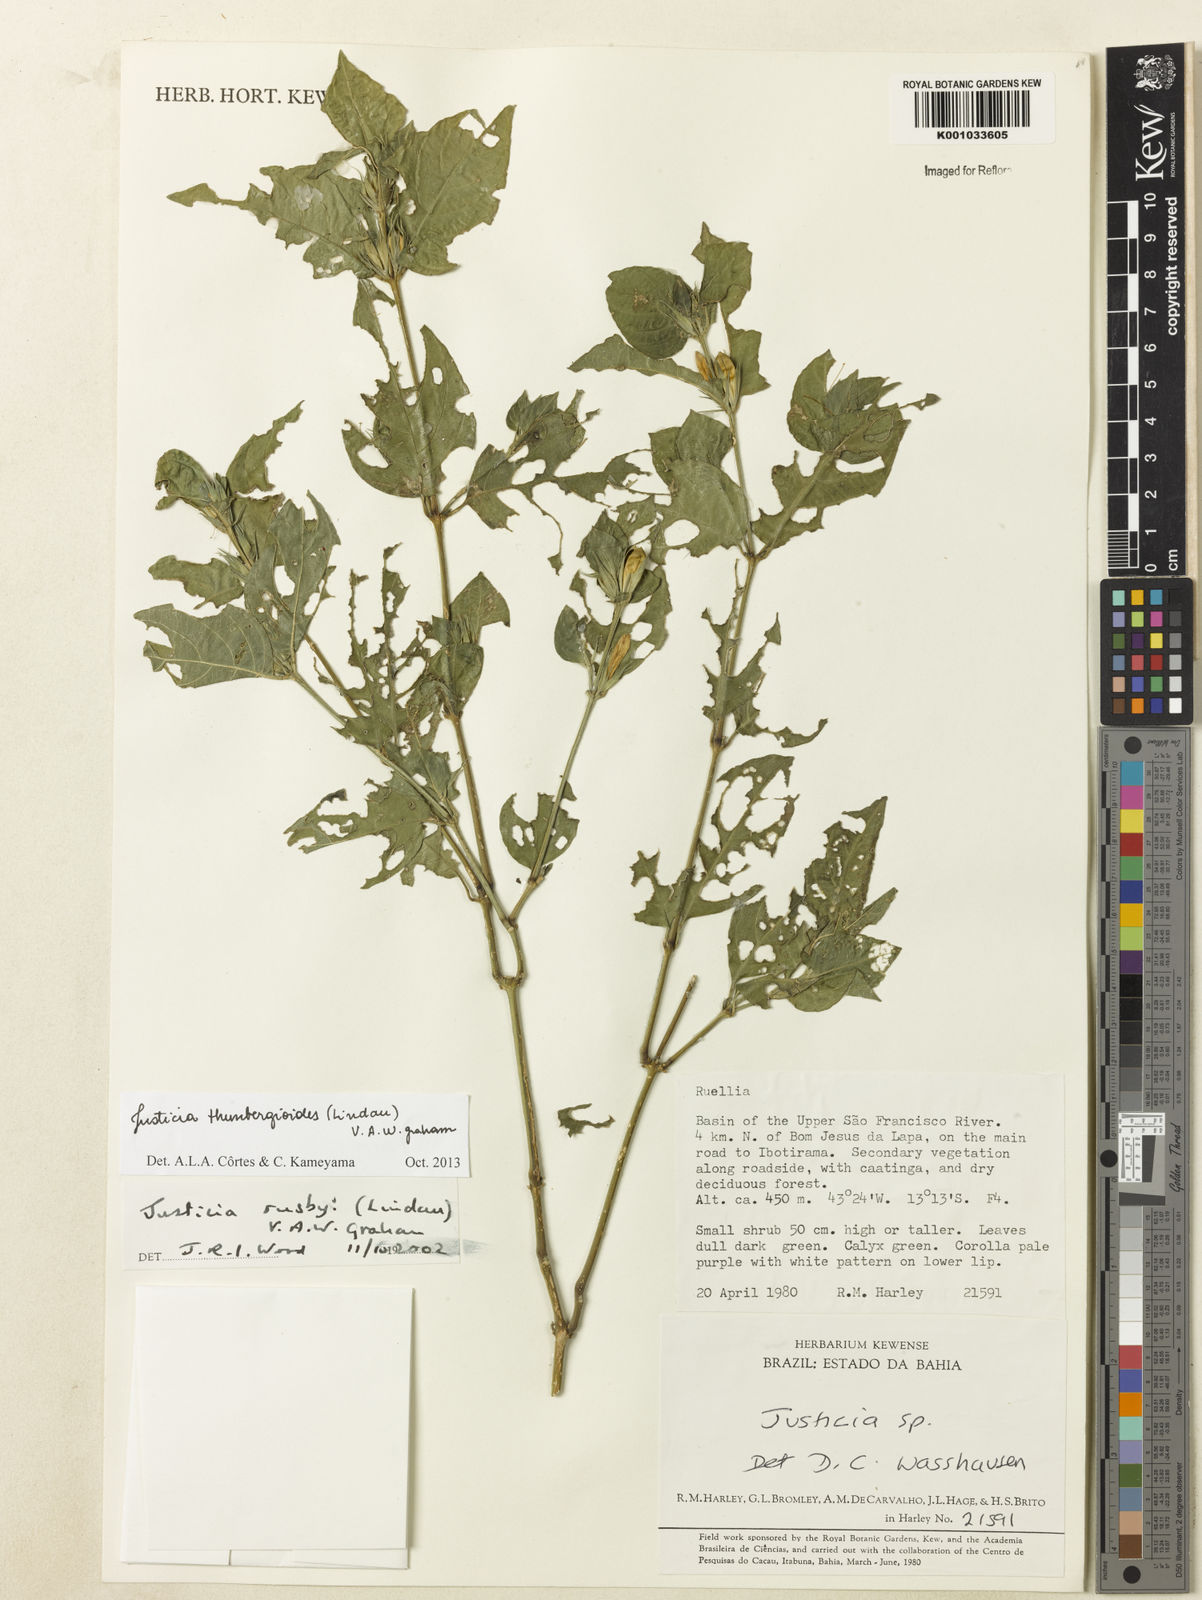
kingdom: Plantae
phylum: Tracheophyta
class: Magnoliopsida
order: Lamiales
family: Acanthaceae
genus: Justicia
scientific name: Justicia thunbergioides
